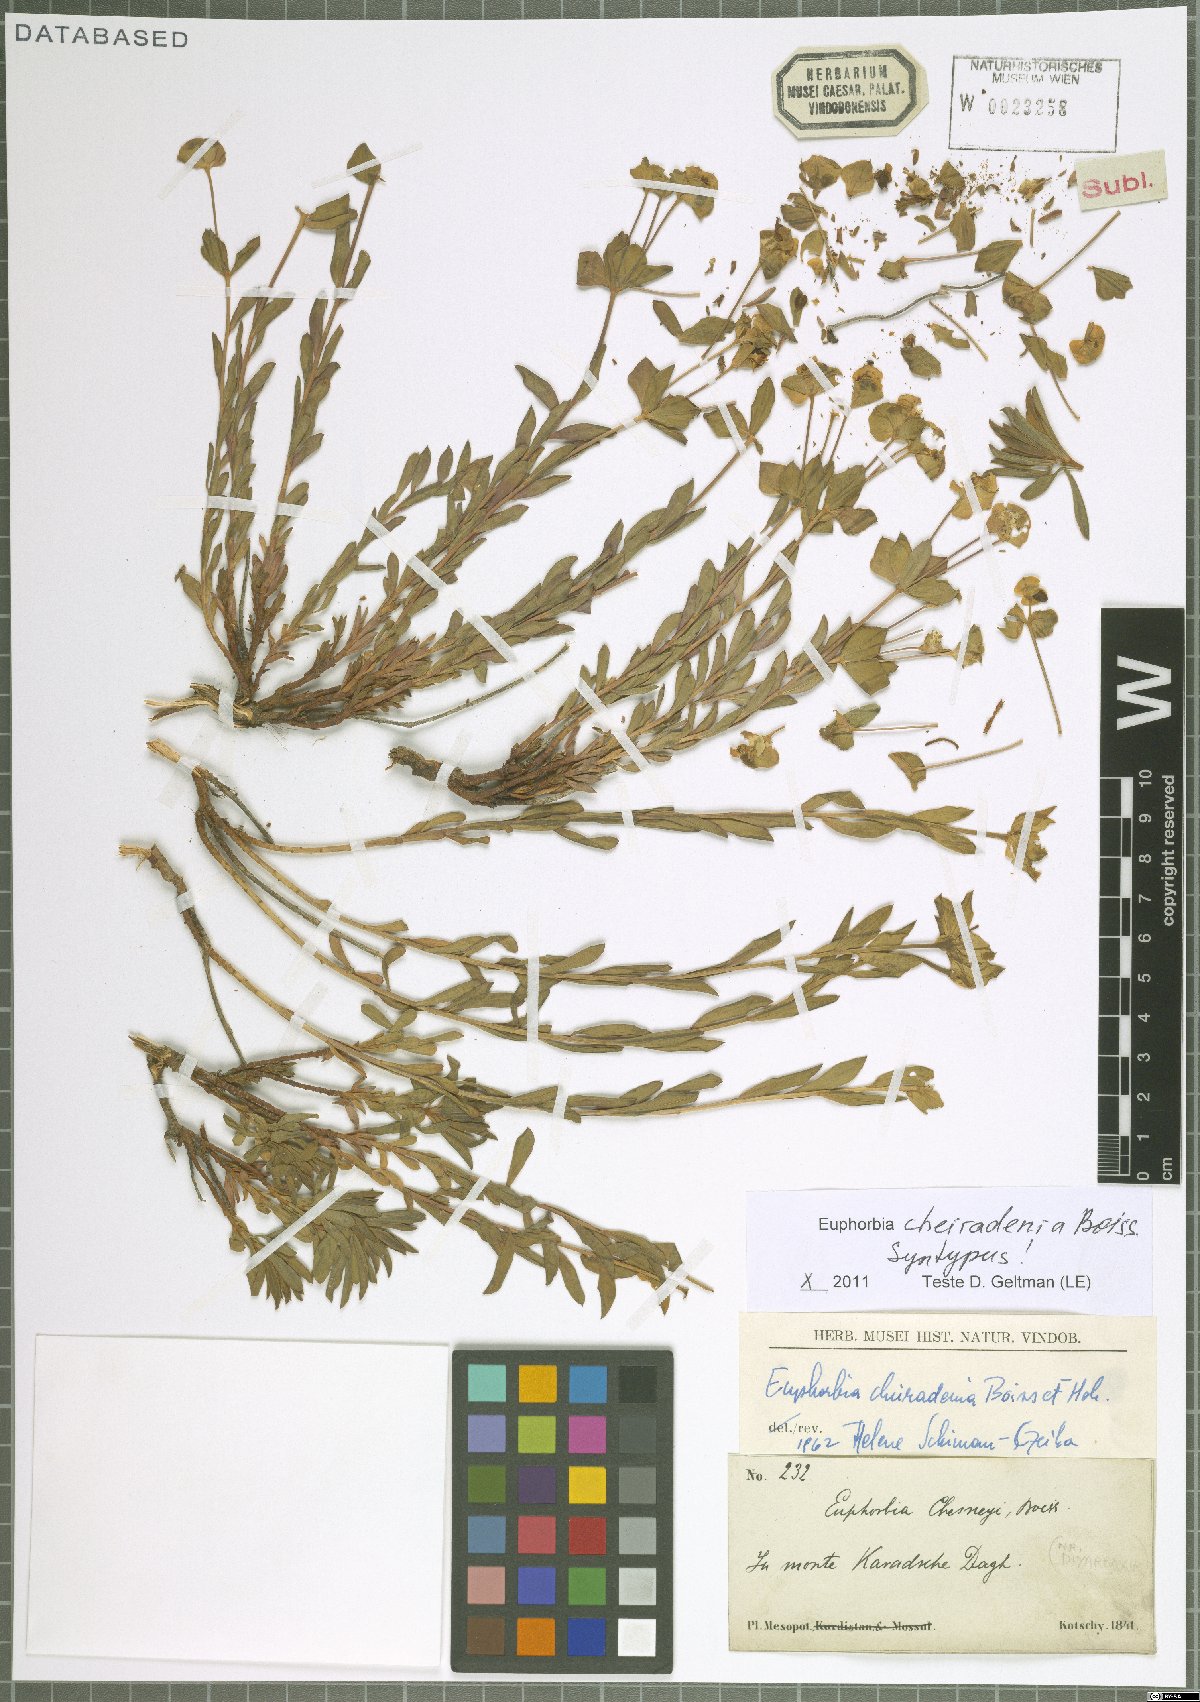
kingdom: Plantae
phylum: Tracheophyta
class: Magnoliopsida
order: Malpighiales
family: Euphorbiaceae
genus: Euphorbia
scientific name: Euphorbia cheiradenia
